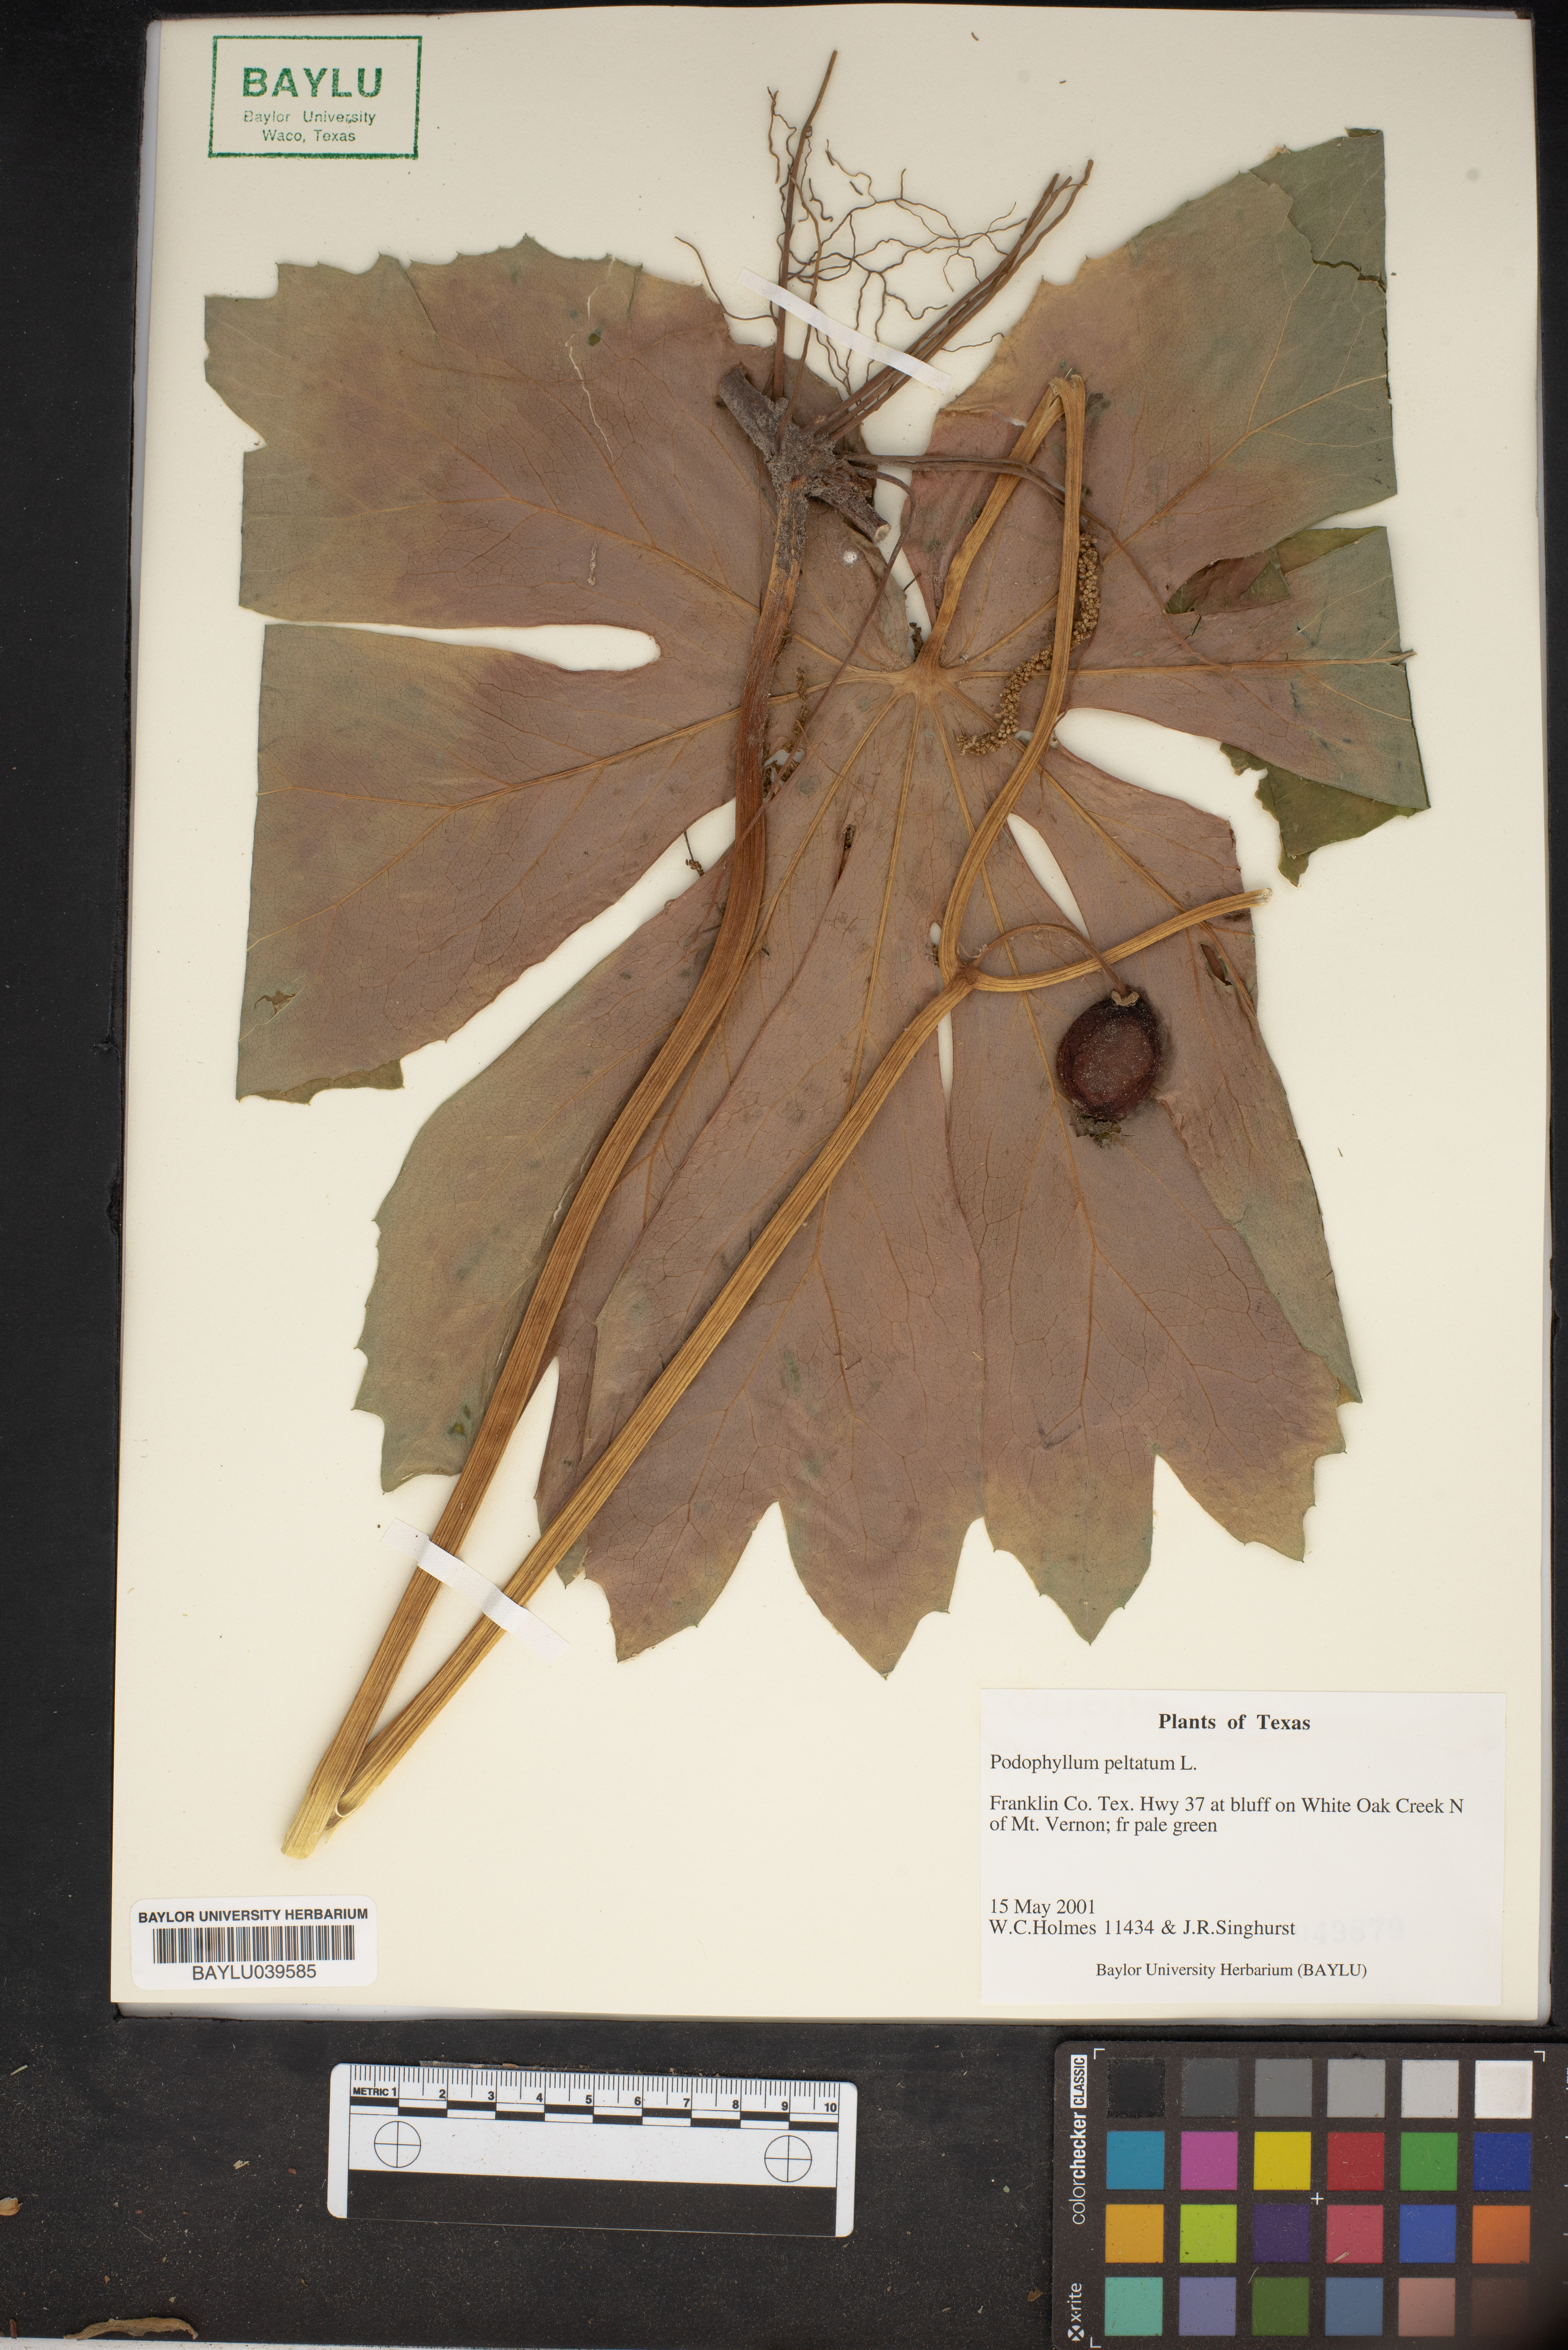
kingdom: Plantae
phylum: Tracheophyta
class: Magnoliopsida
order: Ranunculales
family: Berberidaceae
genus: Podophyllum
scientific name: Podophyllum peltatum
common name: Wild mandrake
